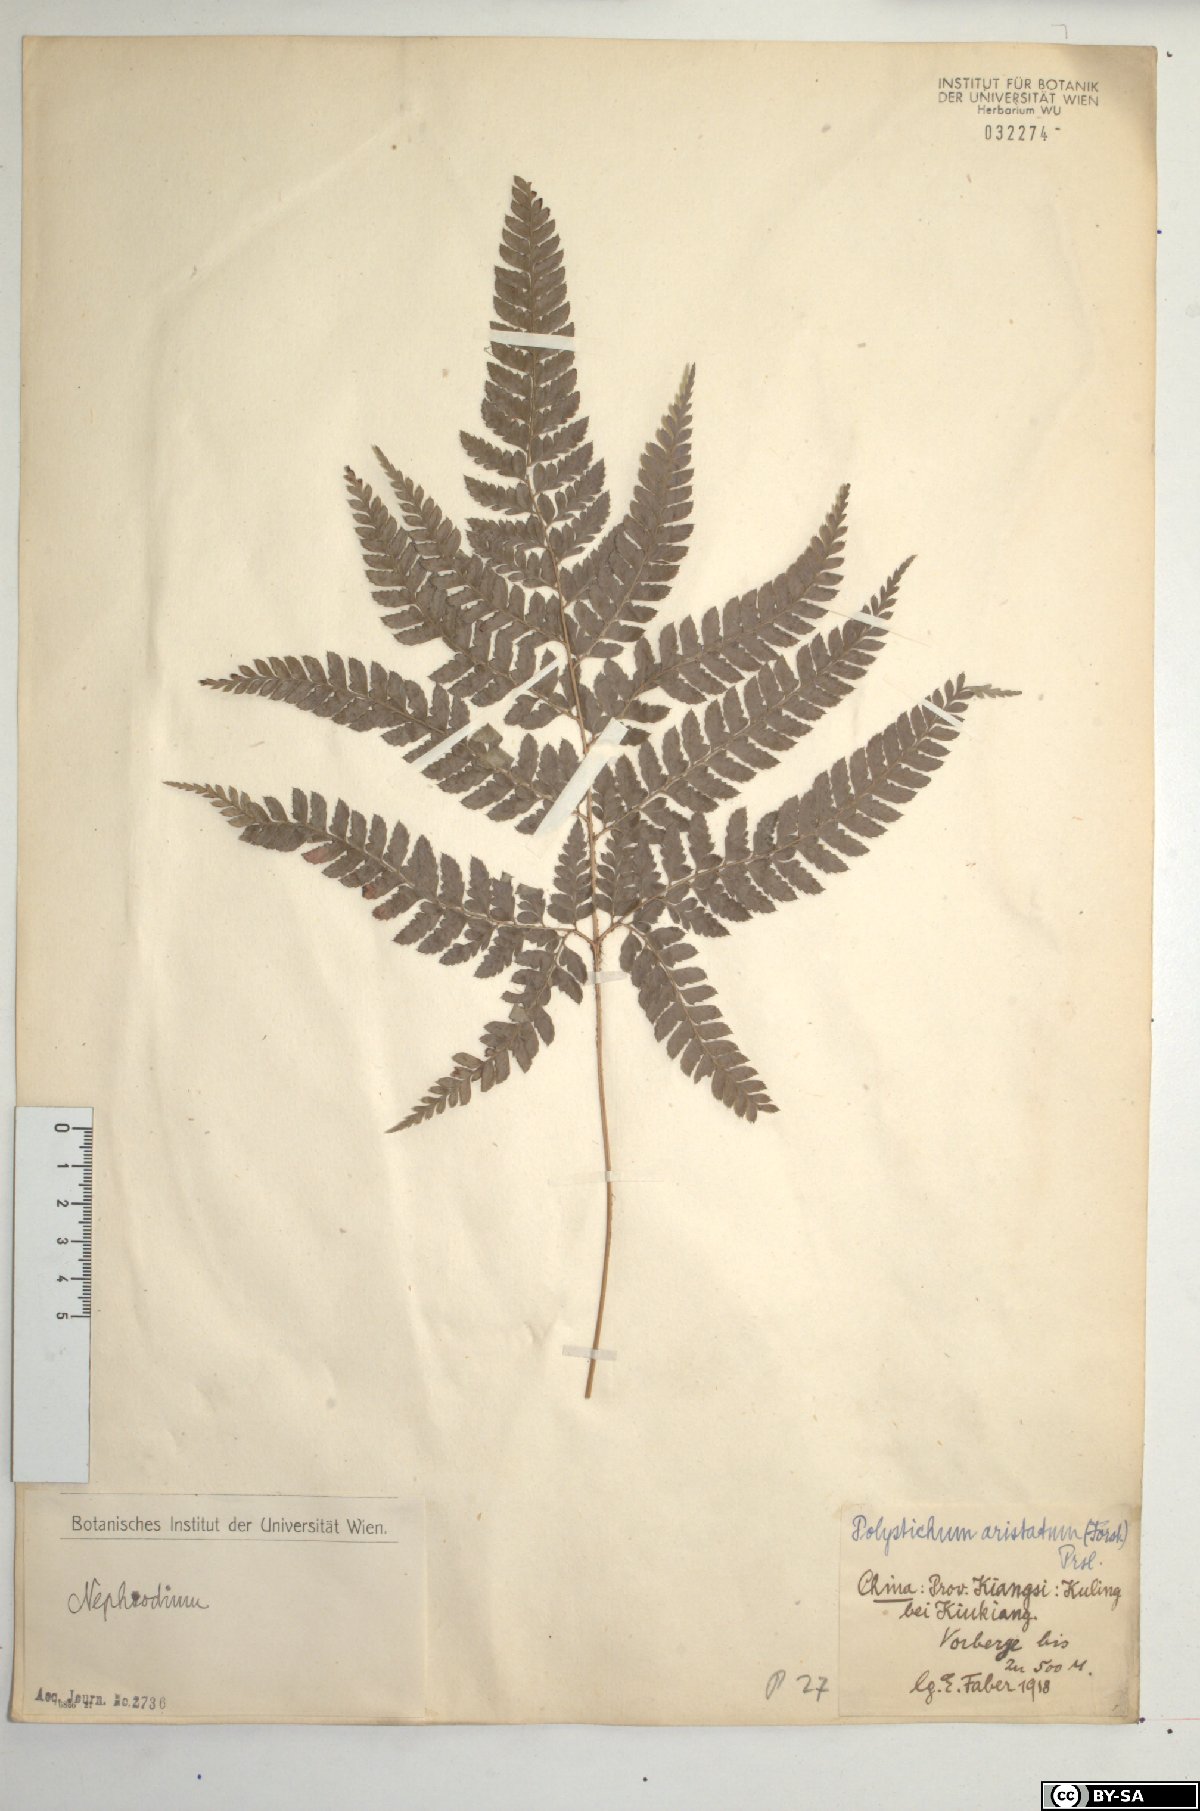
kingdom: Plantae
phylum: Tracheophyta
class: Polypodiopsida
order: Polypodiales
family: Dryopteridaceae
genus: Arachniodes
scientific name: Arachniodes aristata
